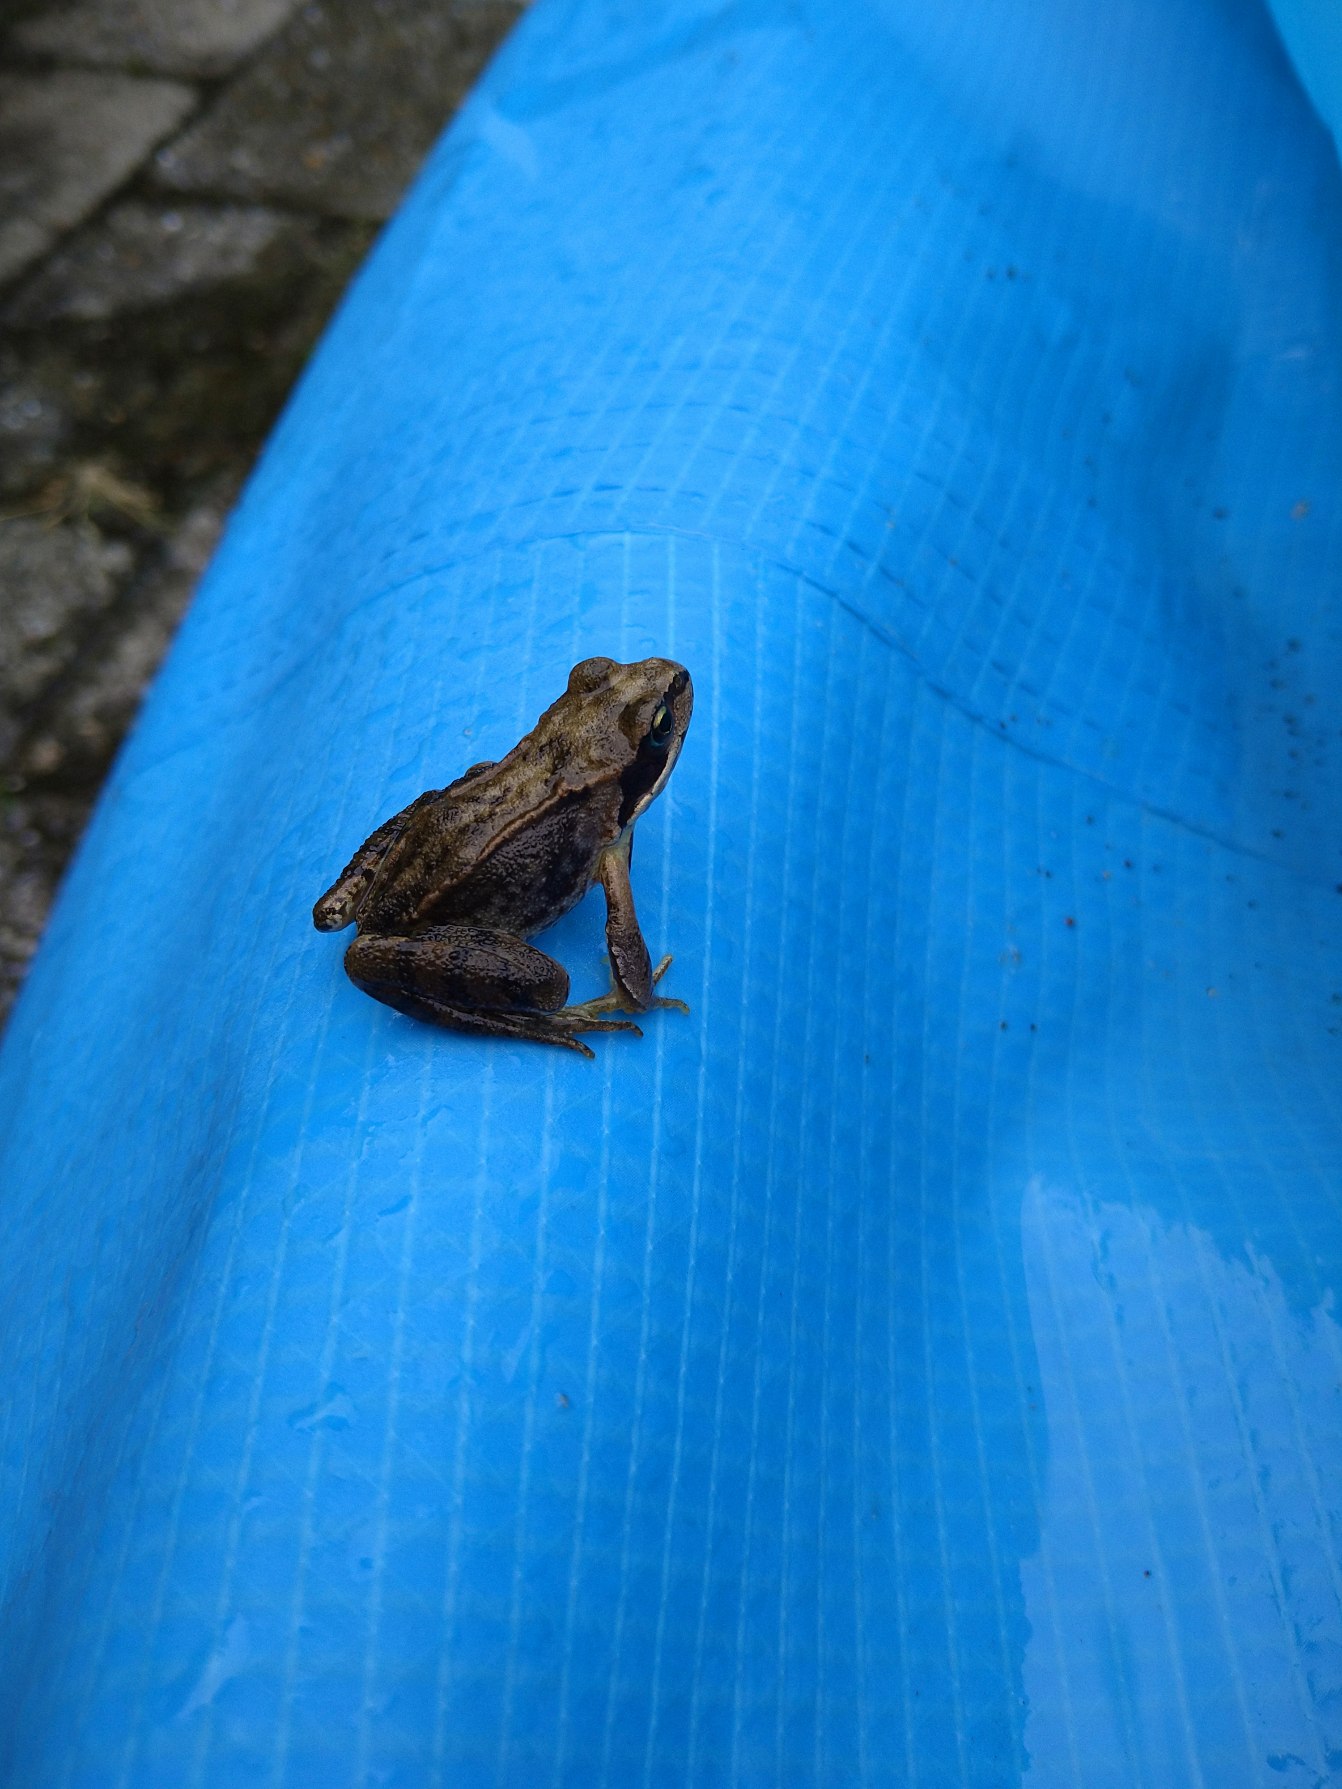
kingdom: Animalia
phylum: Chordata
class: Amphibia
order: Anura
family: Ranidae
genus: Rana
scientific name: Rana temporaria
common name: Butsnudet frø
